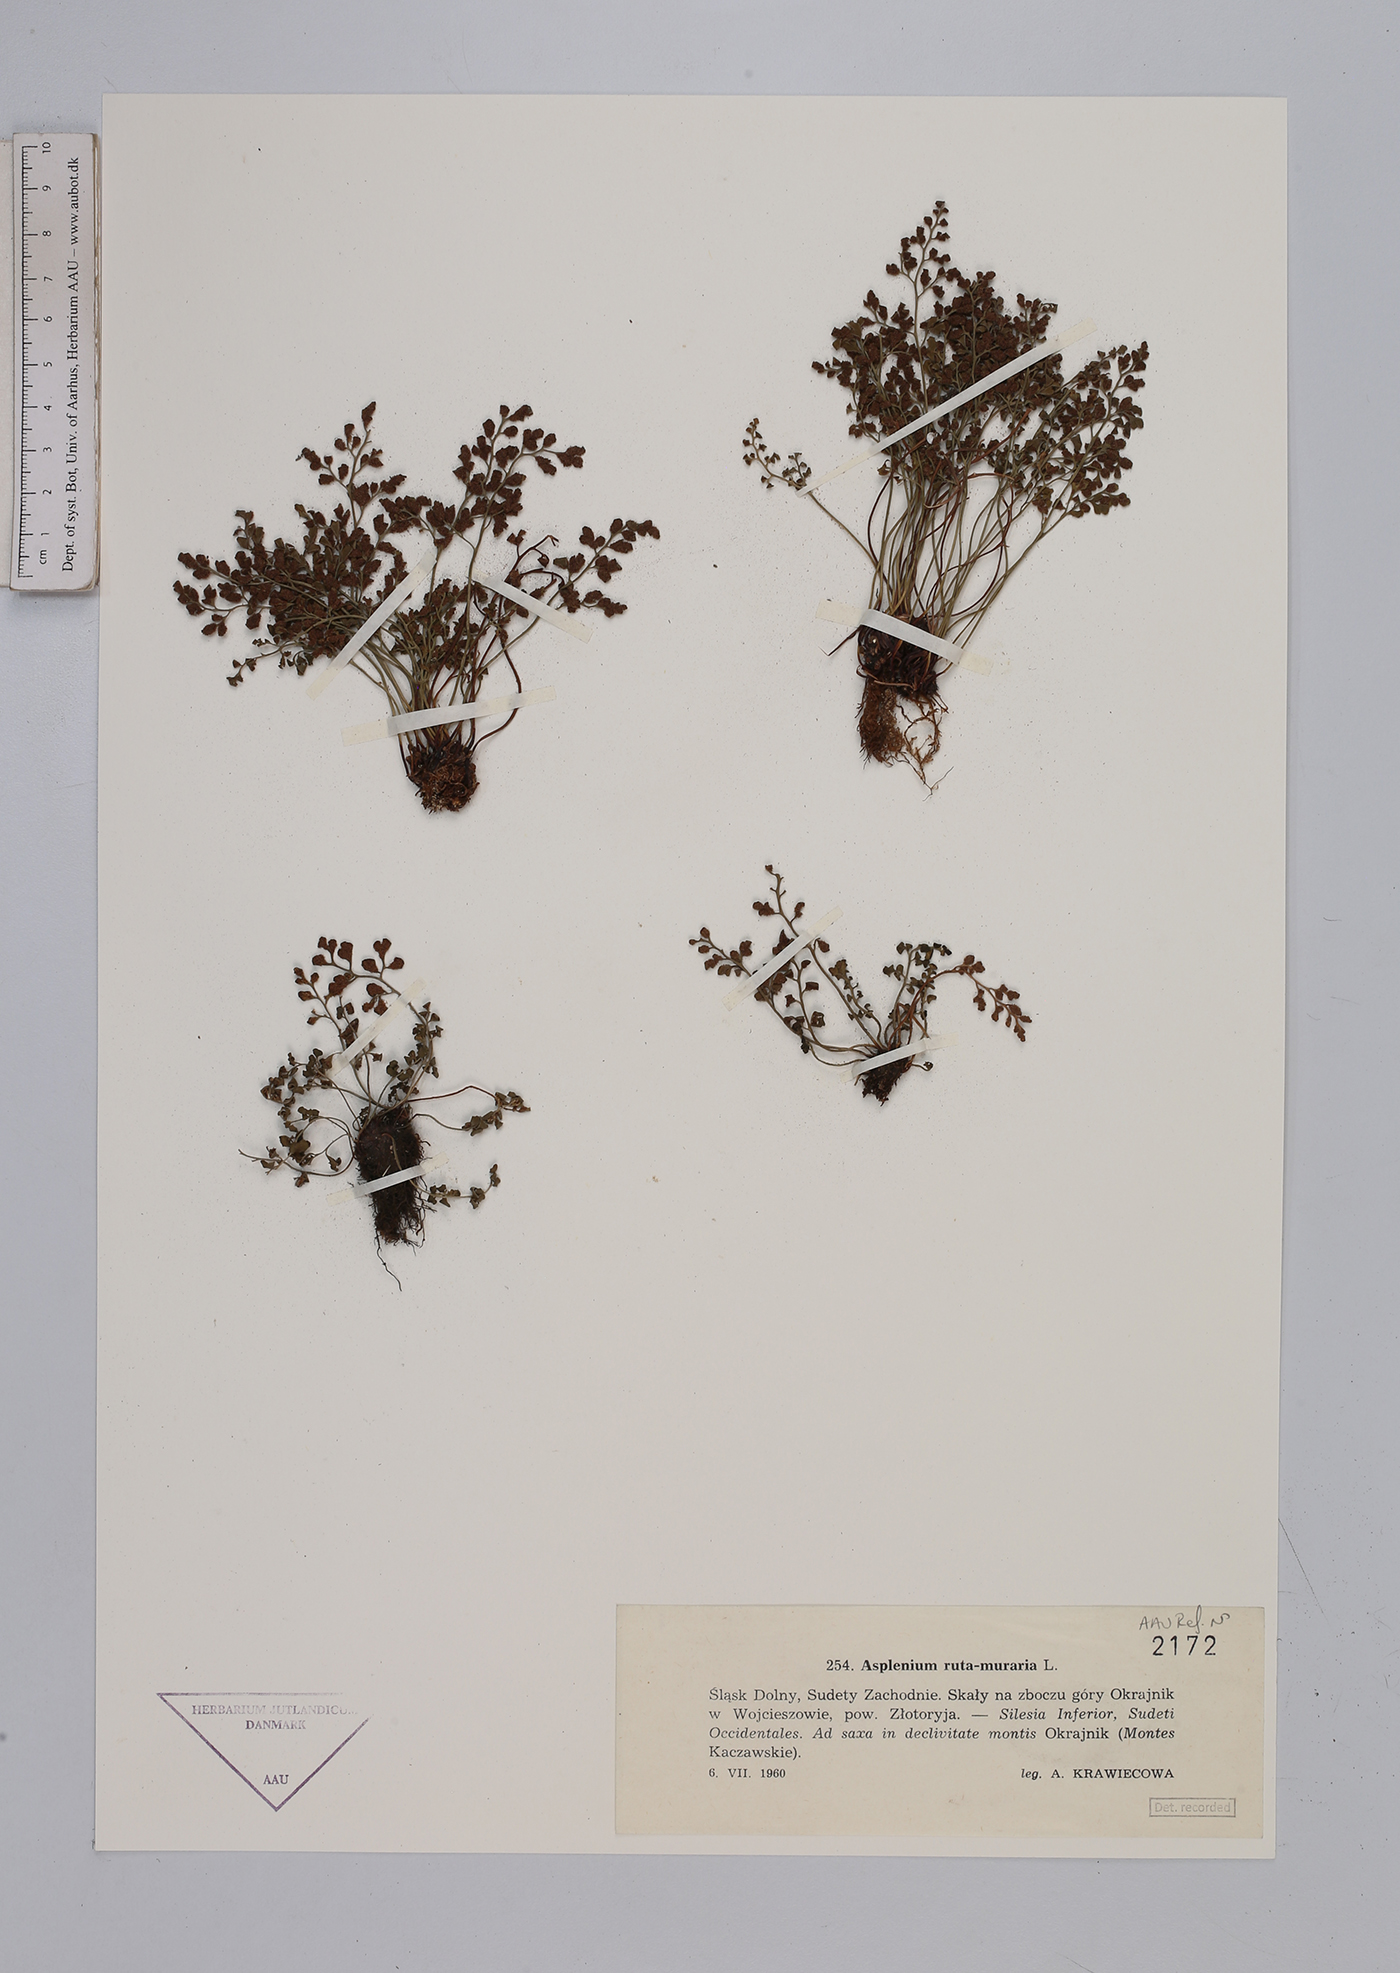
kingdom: Plantae
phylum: Tracheophyta
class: Polypodiopsida
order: Polypodiales
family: Aspleniaceae
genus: Asplenium
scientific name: Asplenium ruta-muraria
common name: Wall-rue
